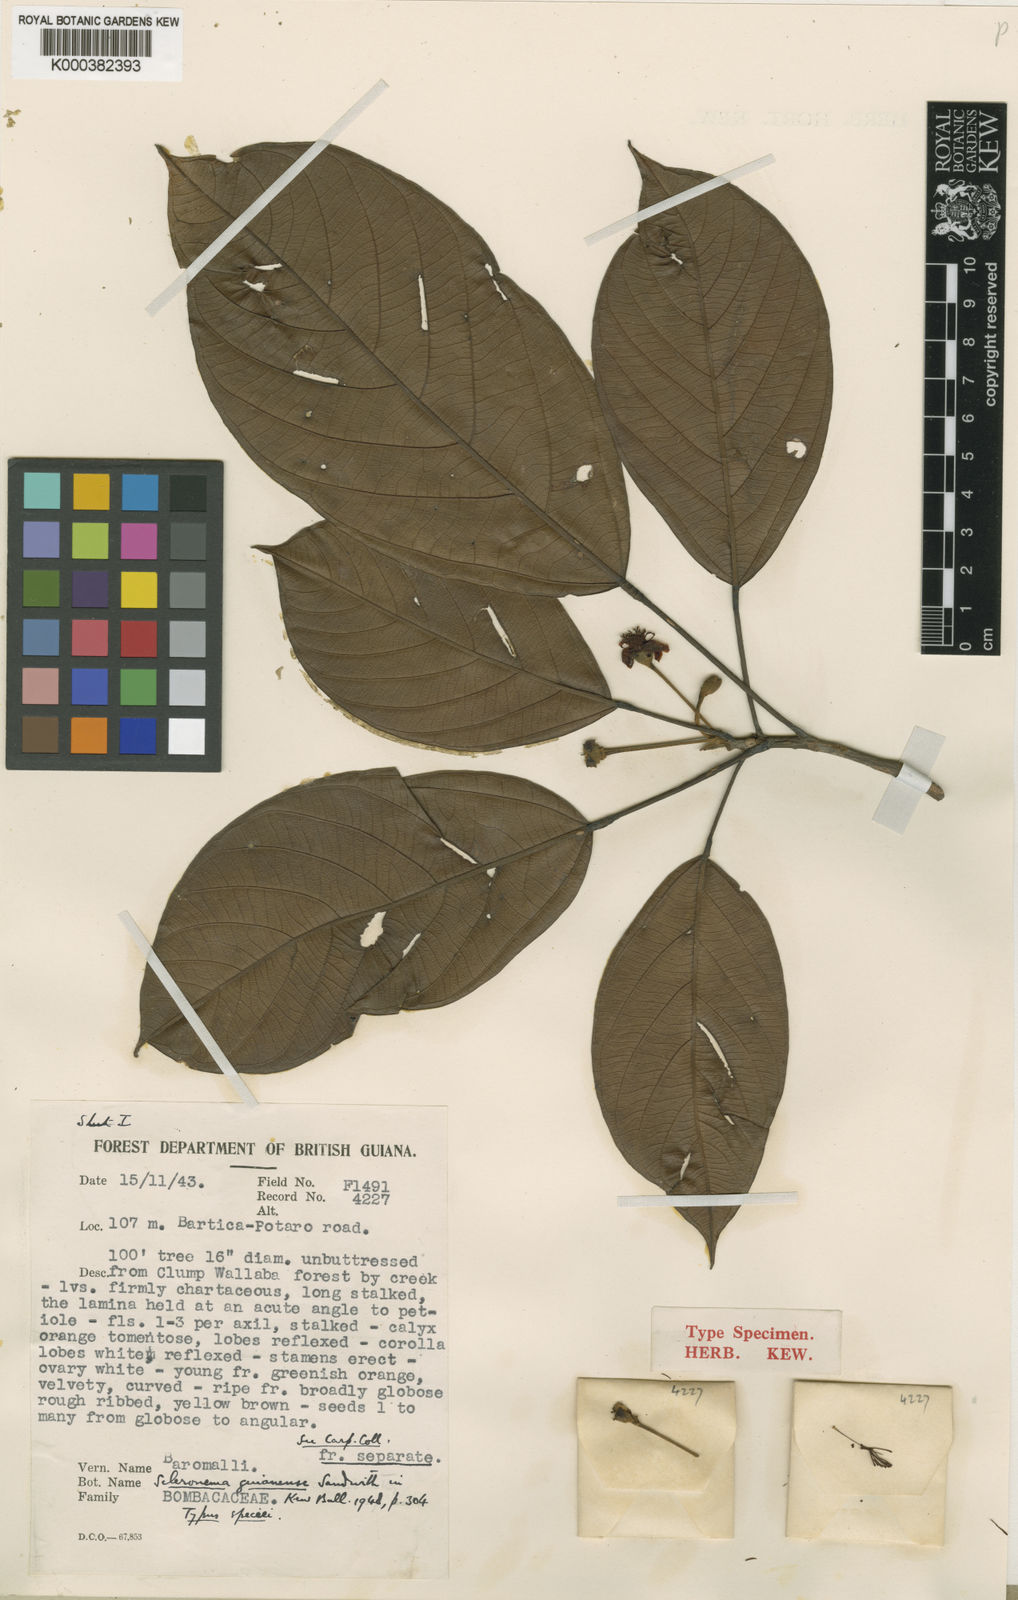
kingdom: Plantae
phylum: Tracheophyta
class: Magnoliopsida
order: Malvales
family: Malvaceae
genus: Scleronema
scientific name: Scleronema guianense
